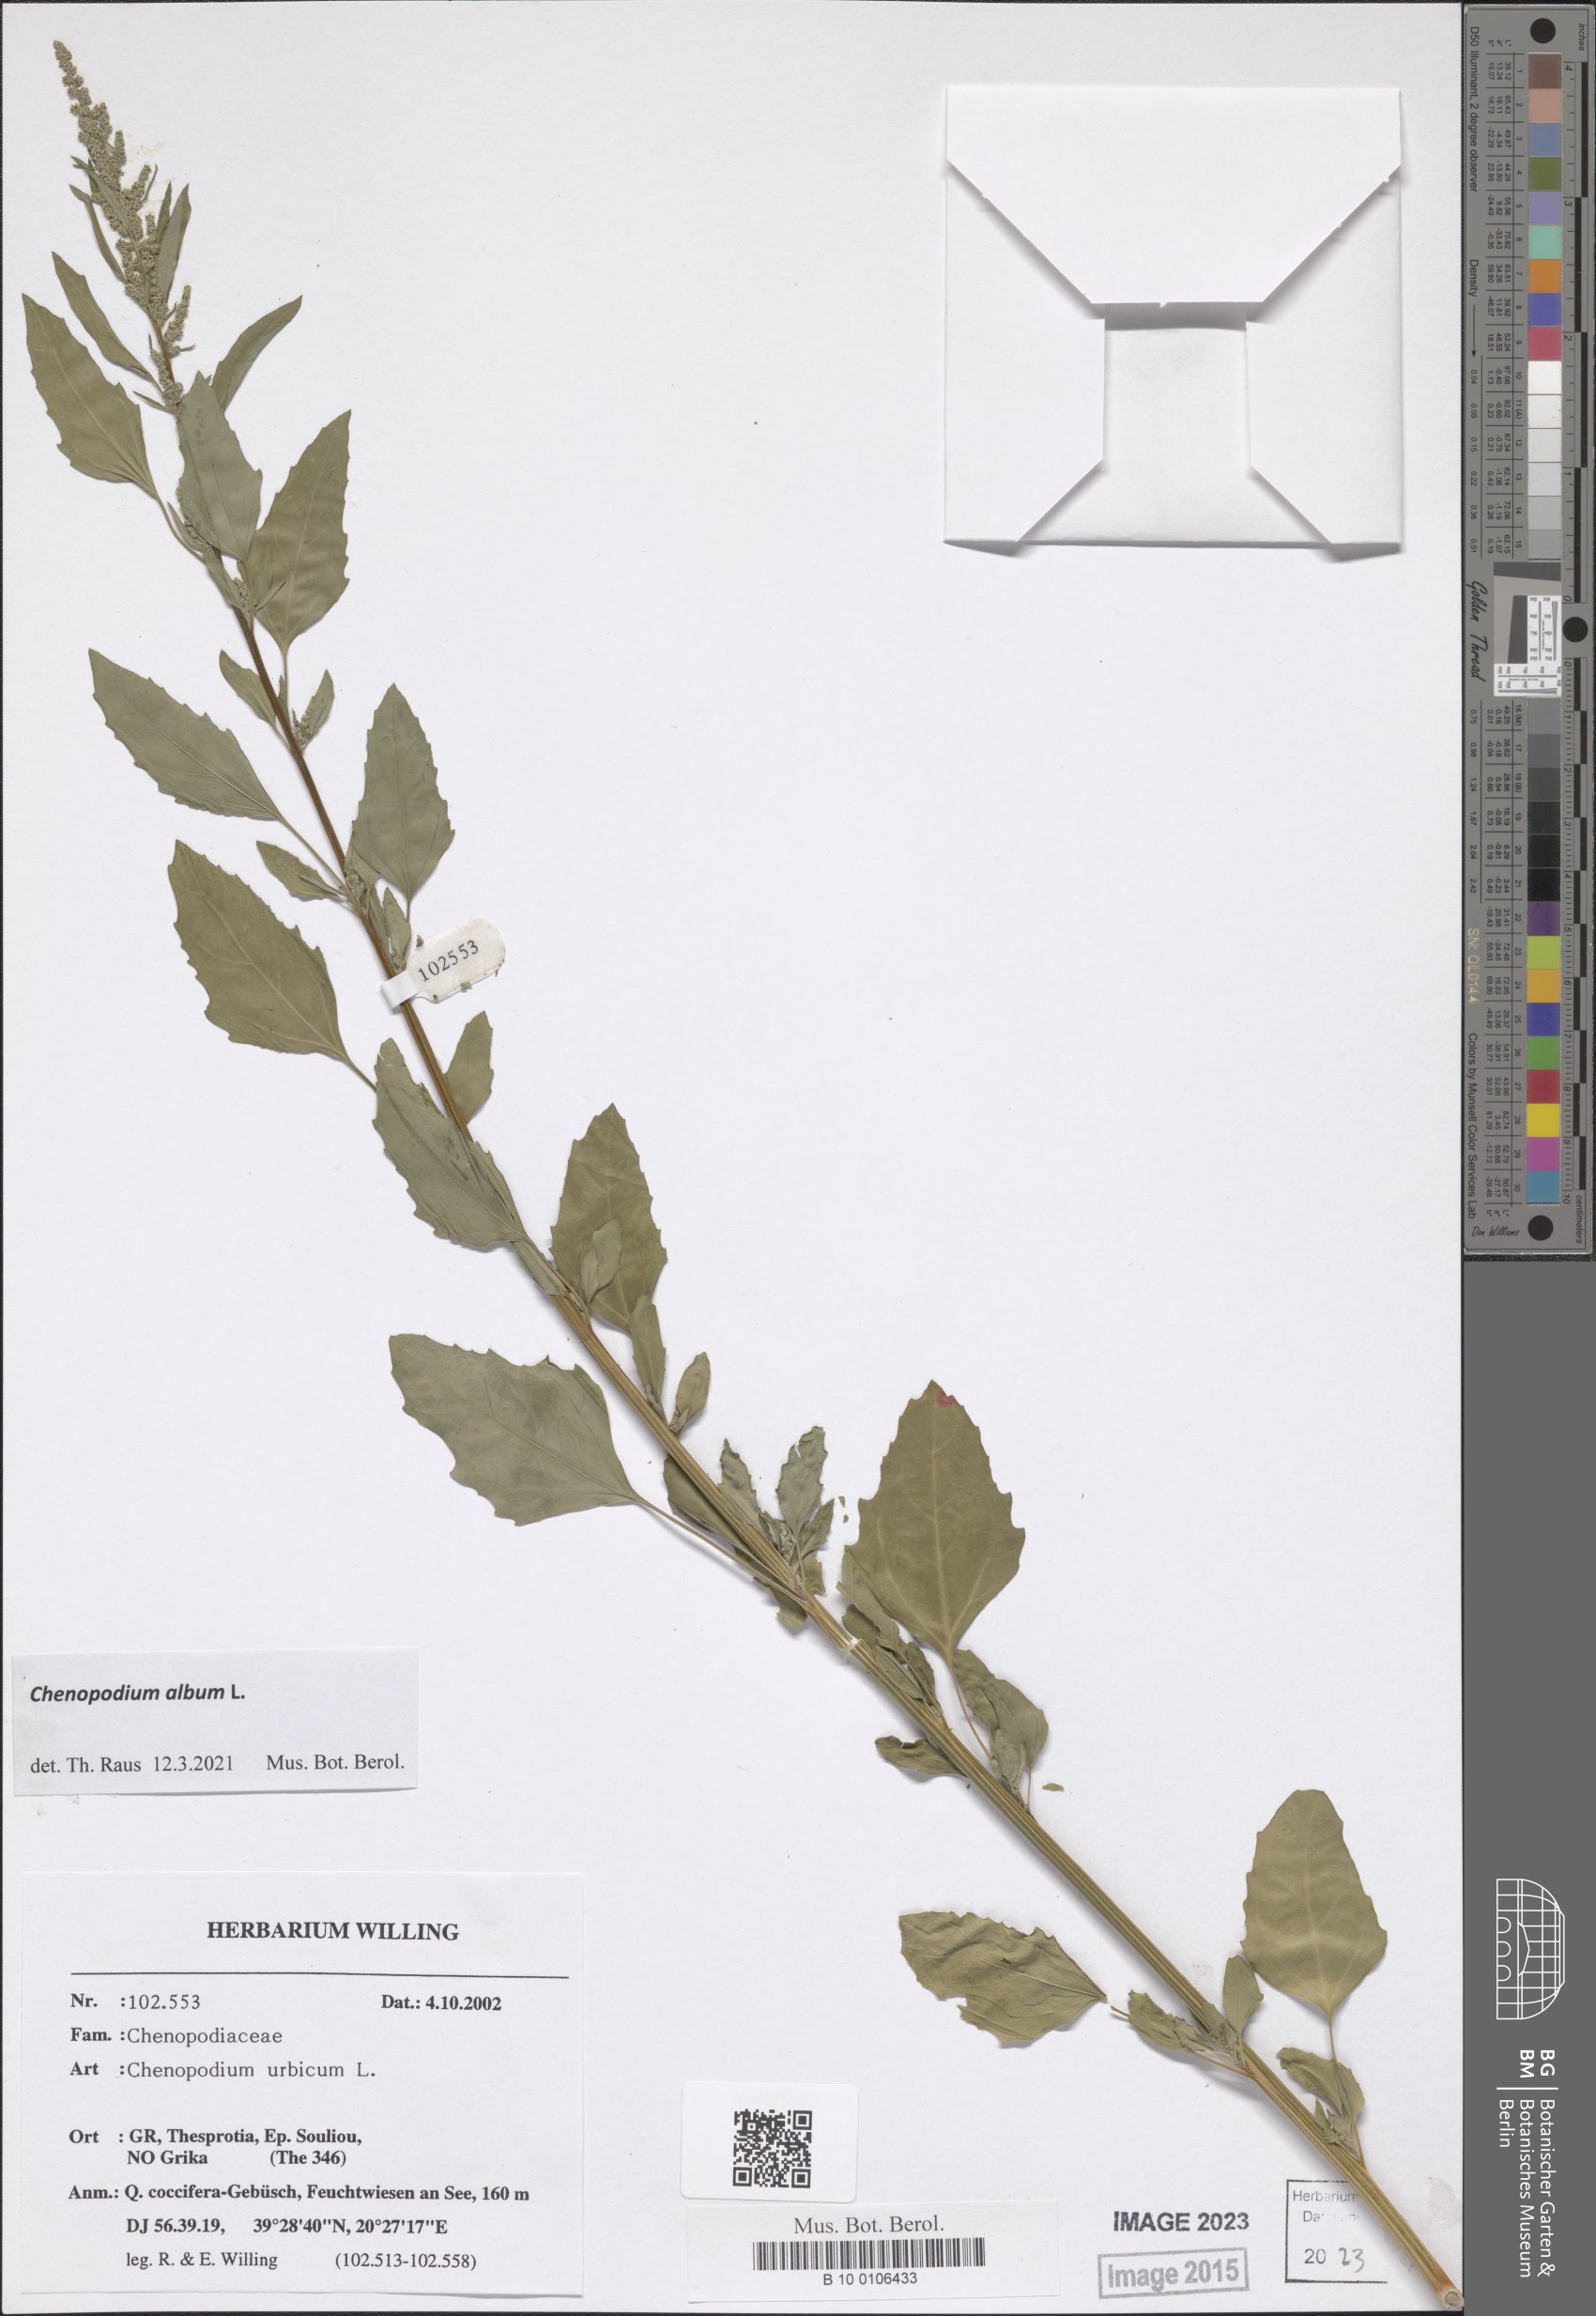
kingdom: Plantae
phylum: Tracheophyta
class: Magnoliopsida
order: Caryophyllales
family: Amaranthaceae
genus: Chenopodium
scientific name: Chenopodium album
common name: Fat-hen
